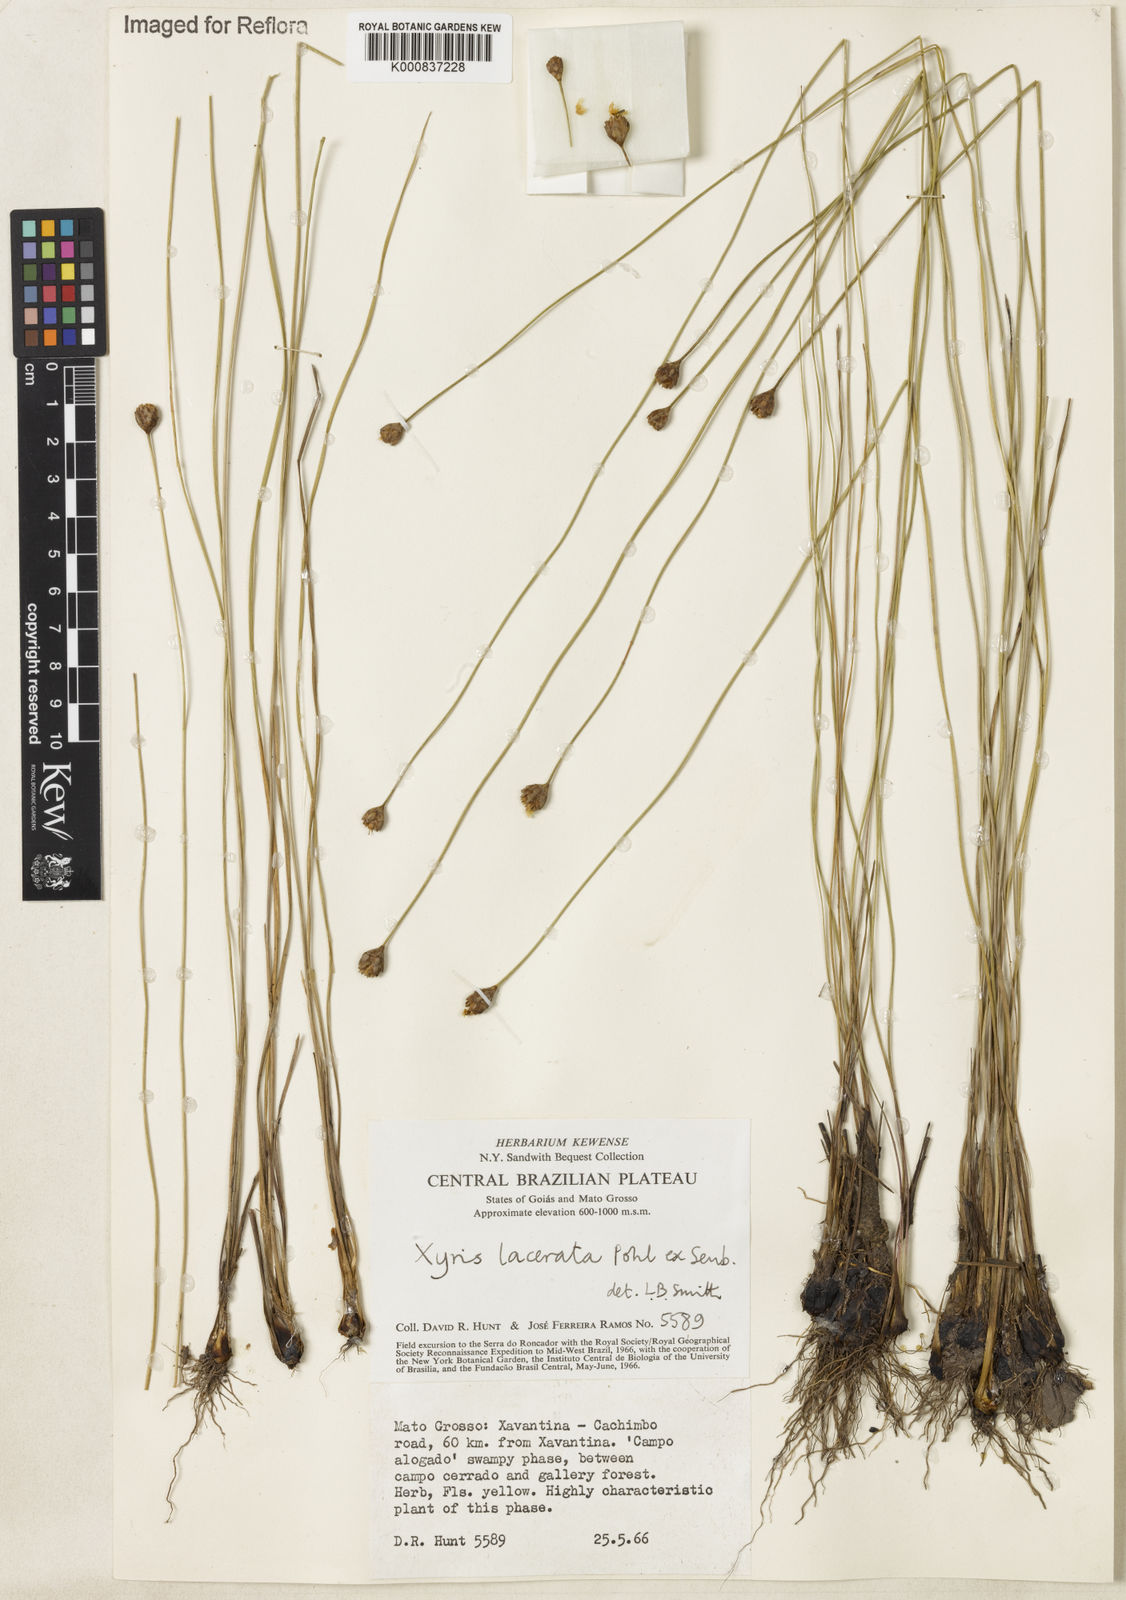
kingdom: Plantae
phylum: Tracheophyta
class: Liliopsida
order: Poales
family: Xyridaceae
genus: Xyris
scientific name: Xyris lacerata
